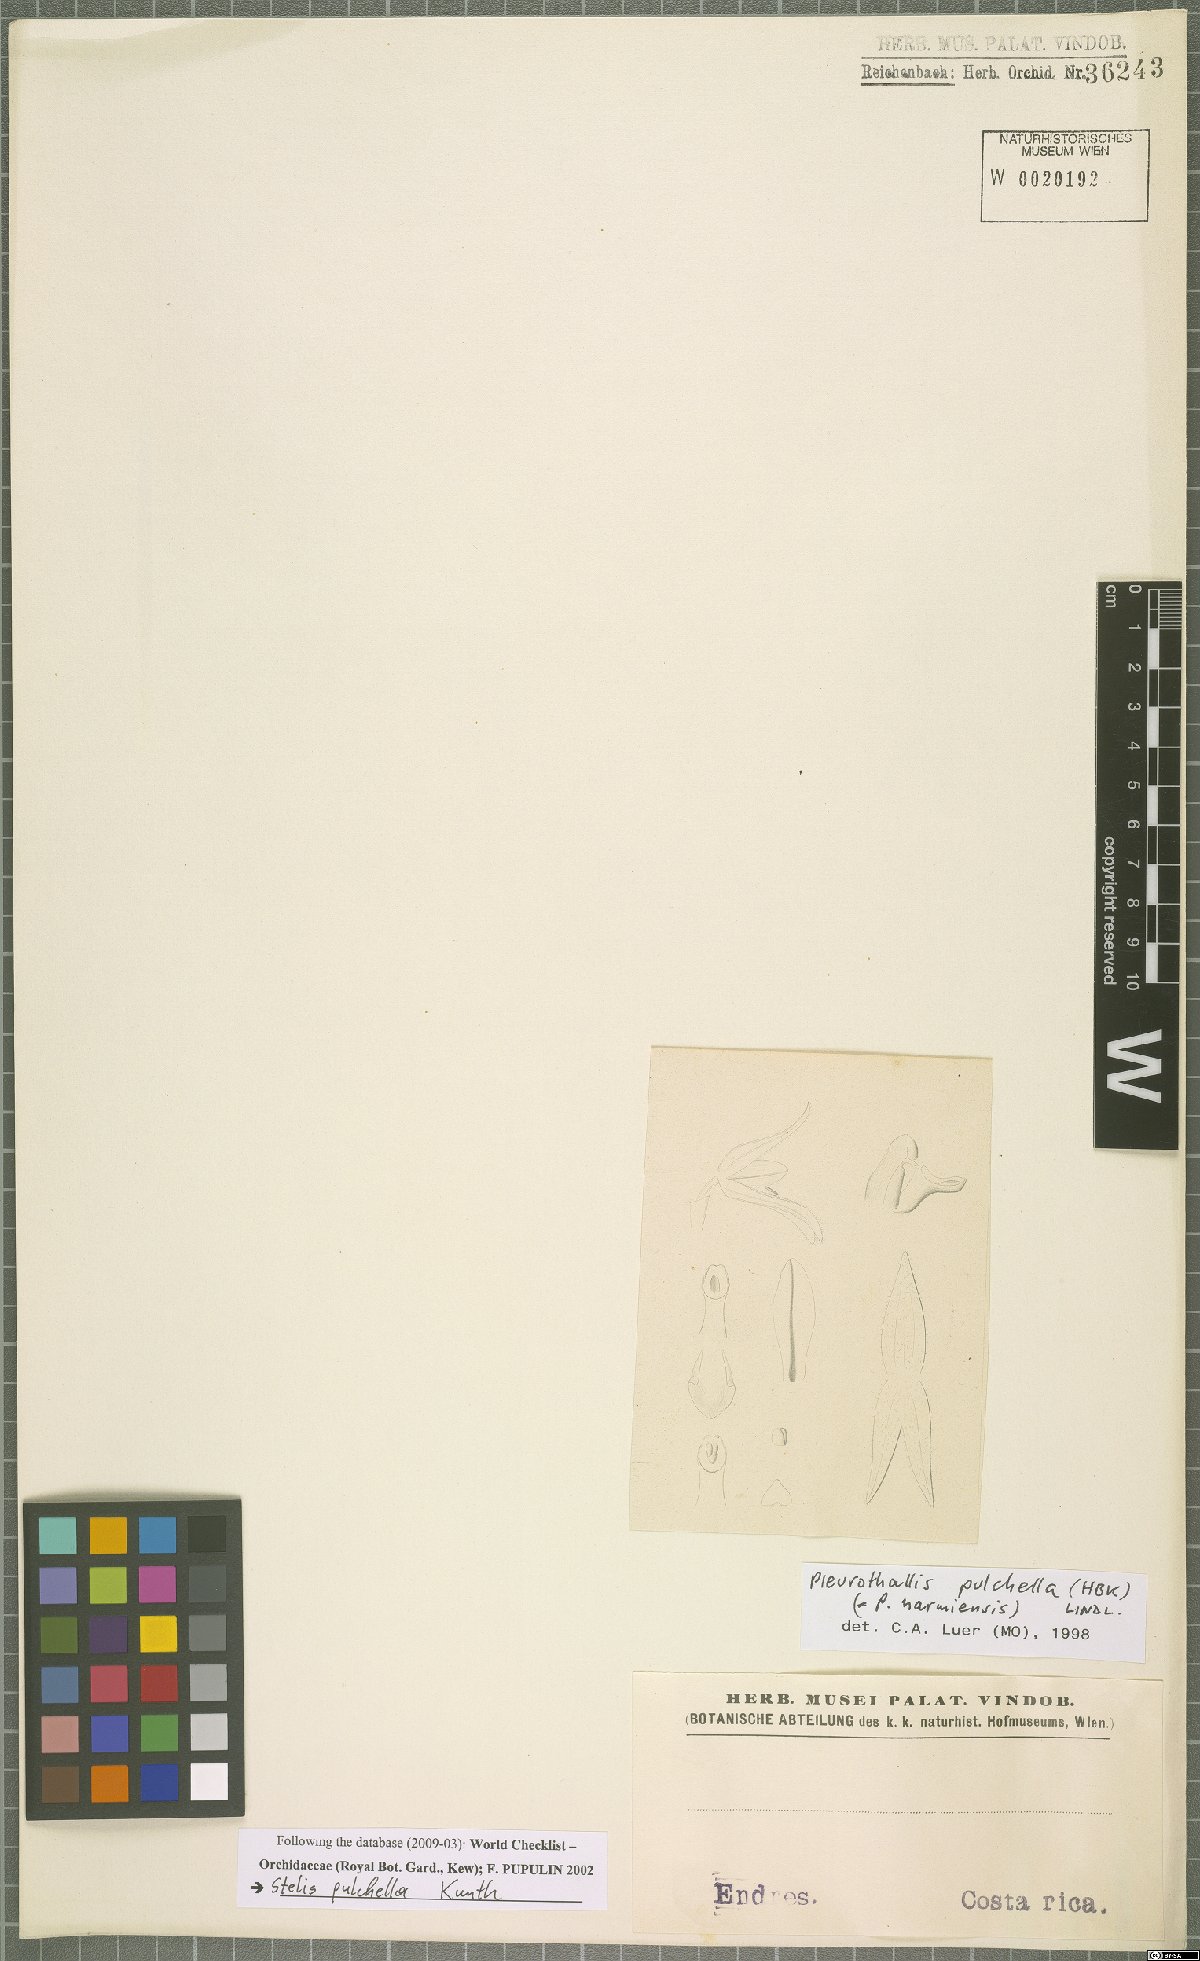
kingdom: Plantae
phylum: Tracheophyta
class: Liliopsida
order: Asparagales
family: Orchidaceae
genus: Stelis
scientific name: Stelis pulchella
